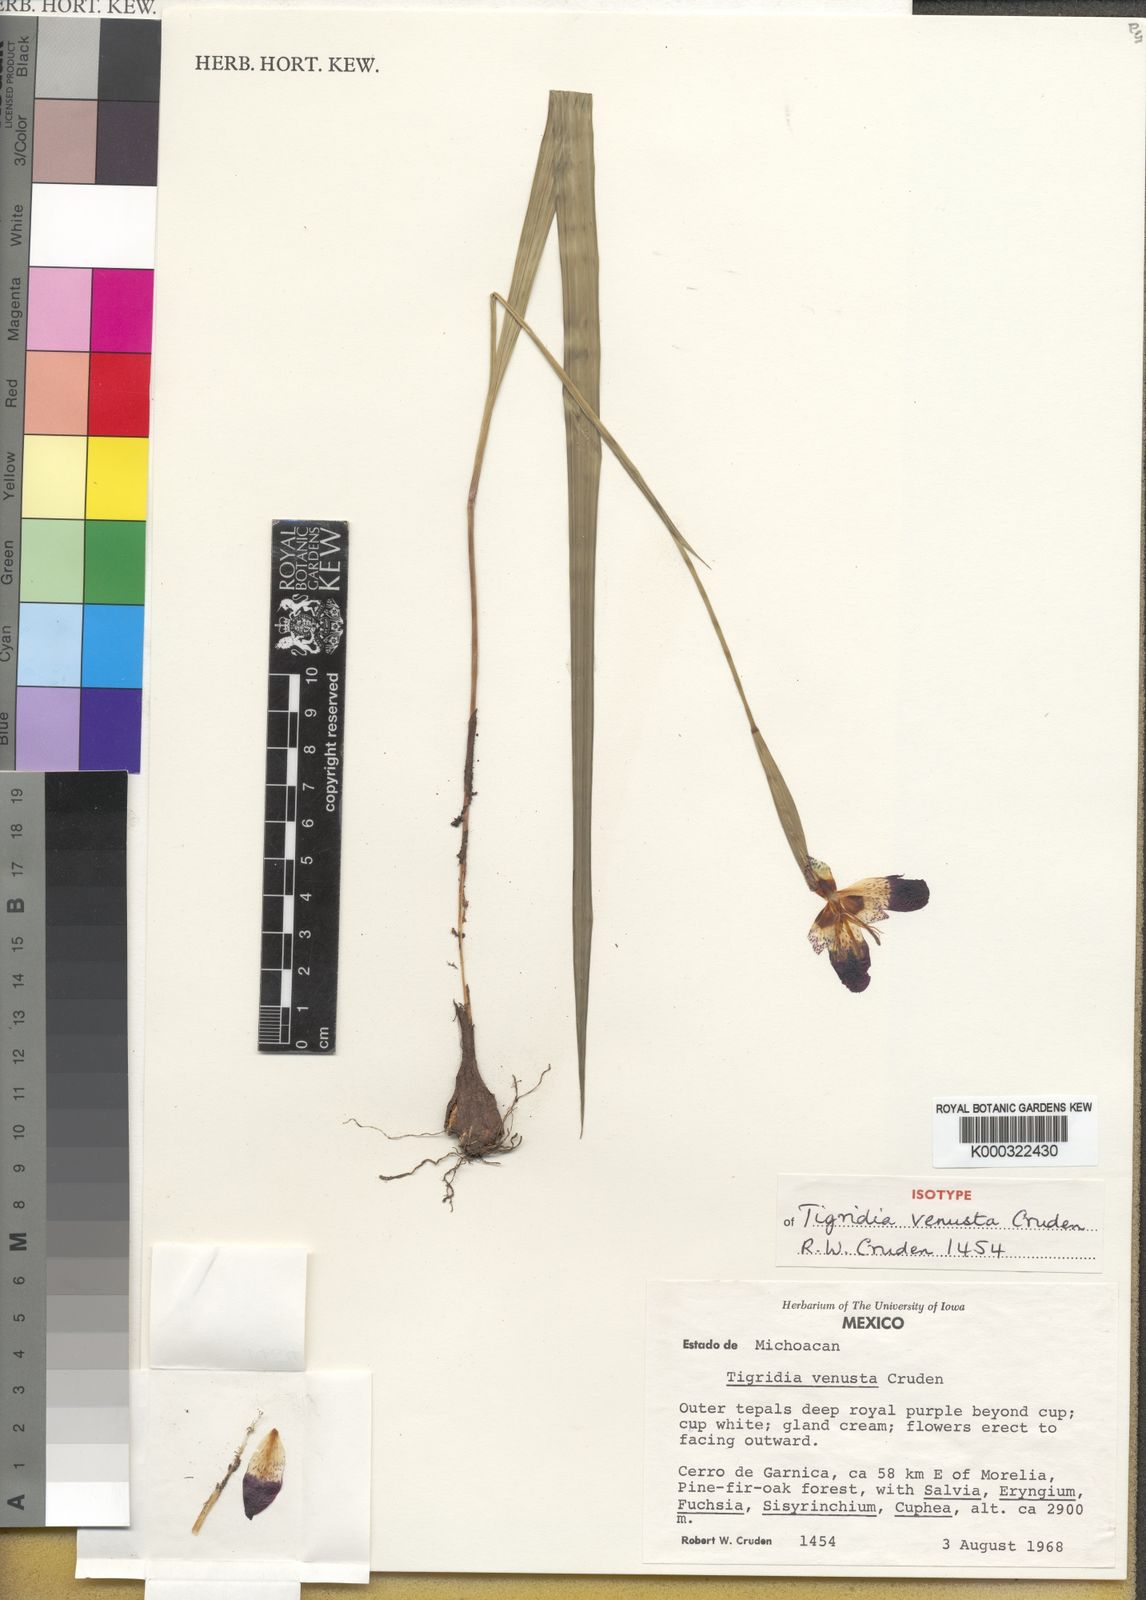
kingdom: Plantae
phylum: Tracheophyta
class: Liliopsida
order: Asparagales
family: Iridaceae
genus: Tigridia
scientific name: Tigridia venusta
